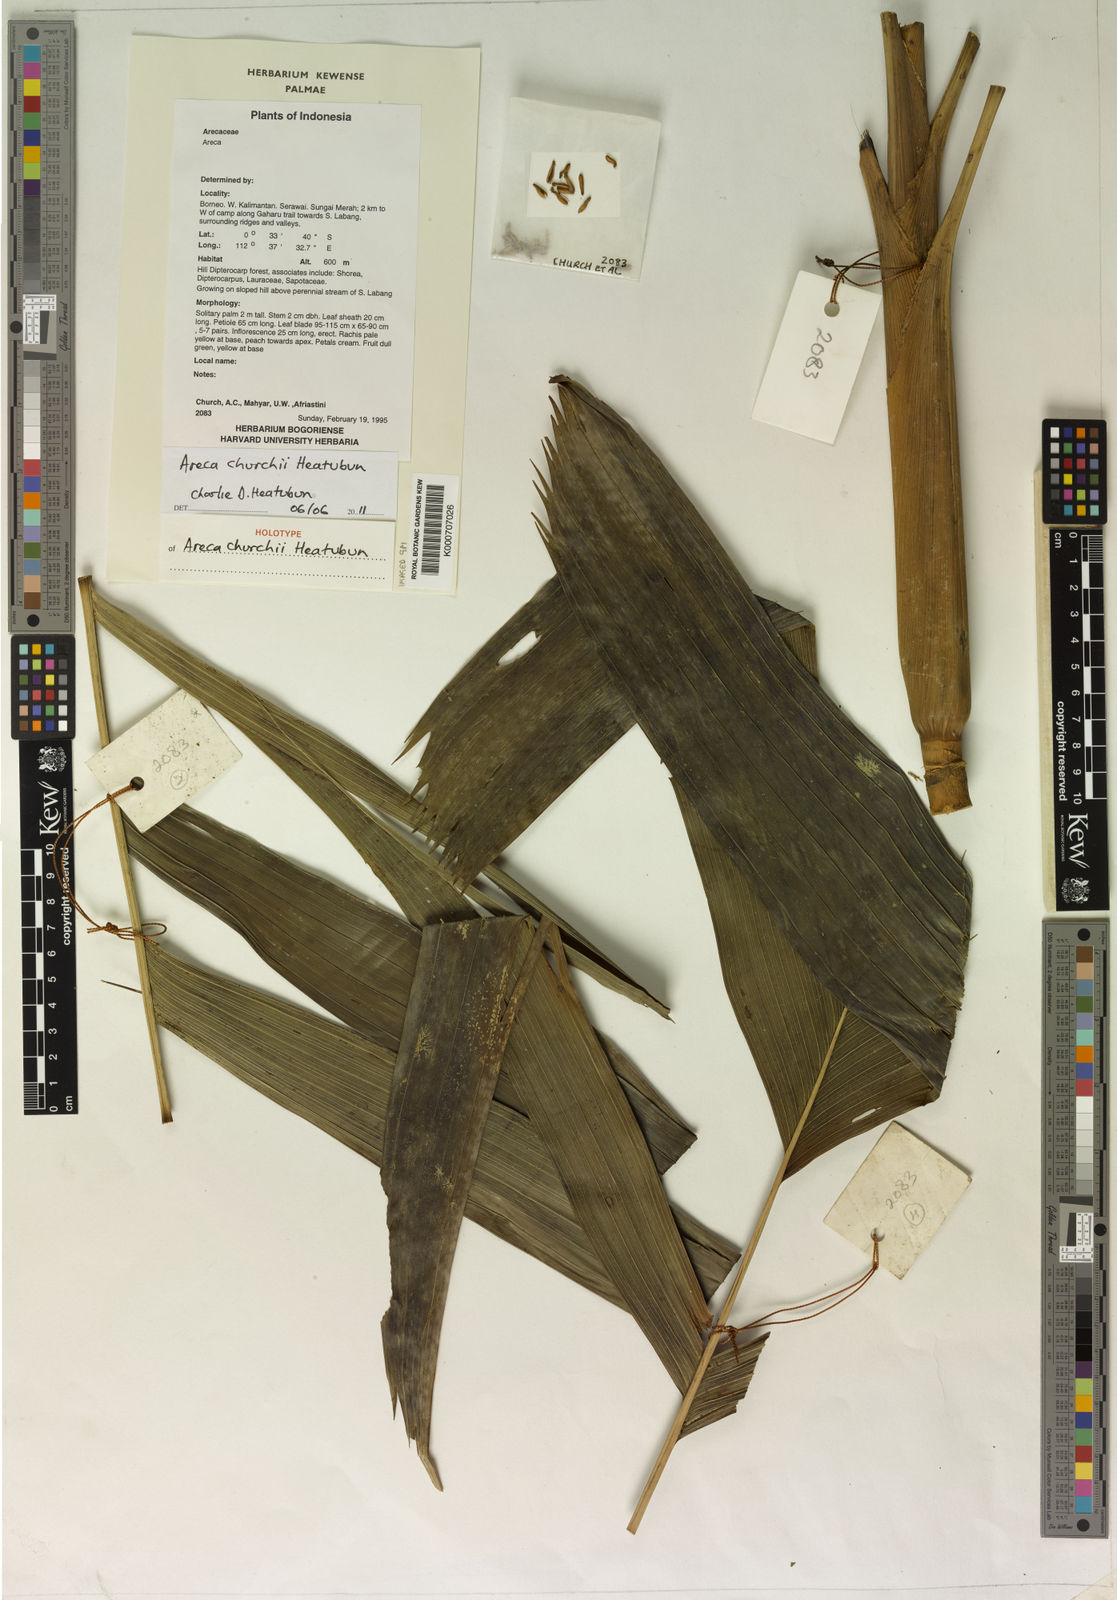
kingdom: Plantae
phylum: Tracheophyta
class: Liliopsida
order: Arecales
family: Arecaceae
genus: Areca
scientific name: Areca churchii
